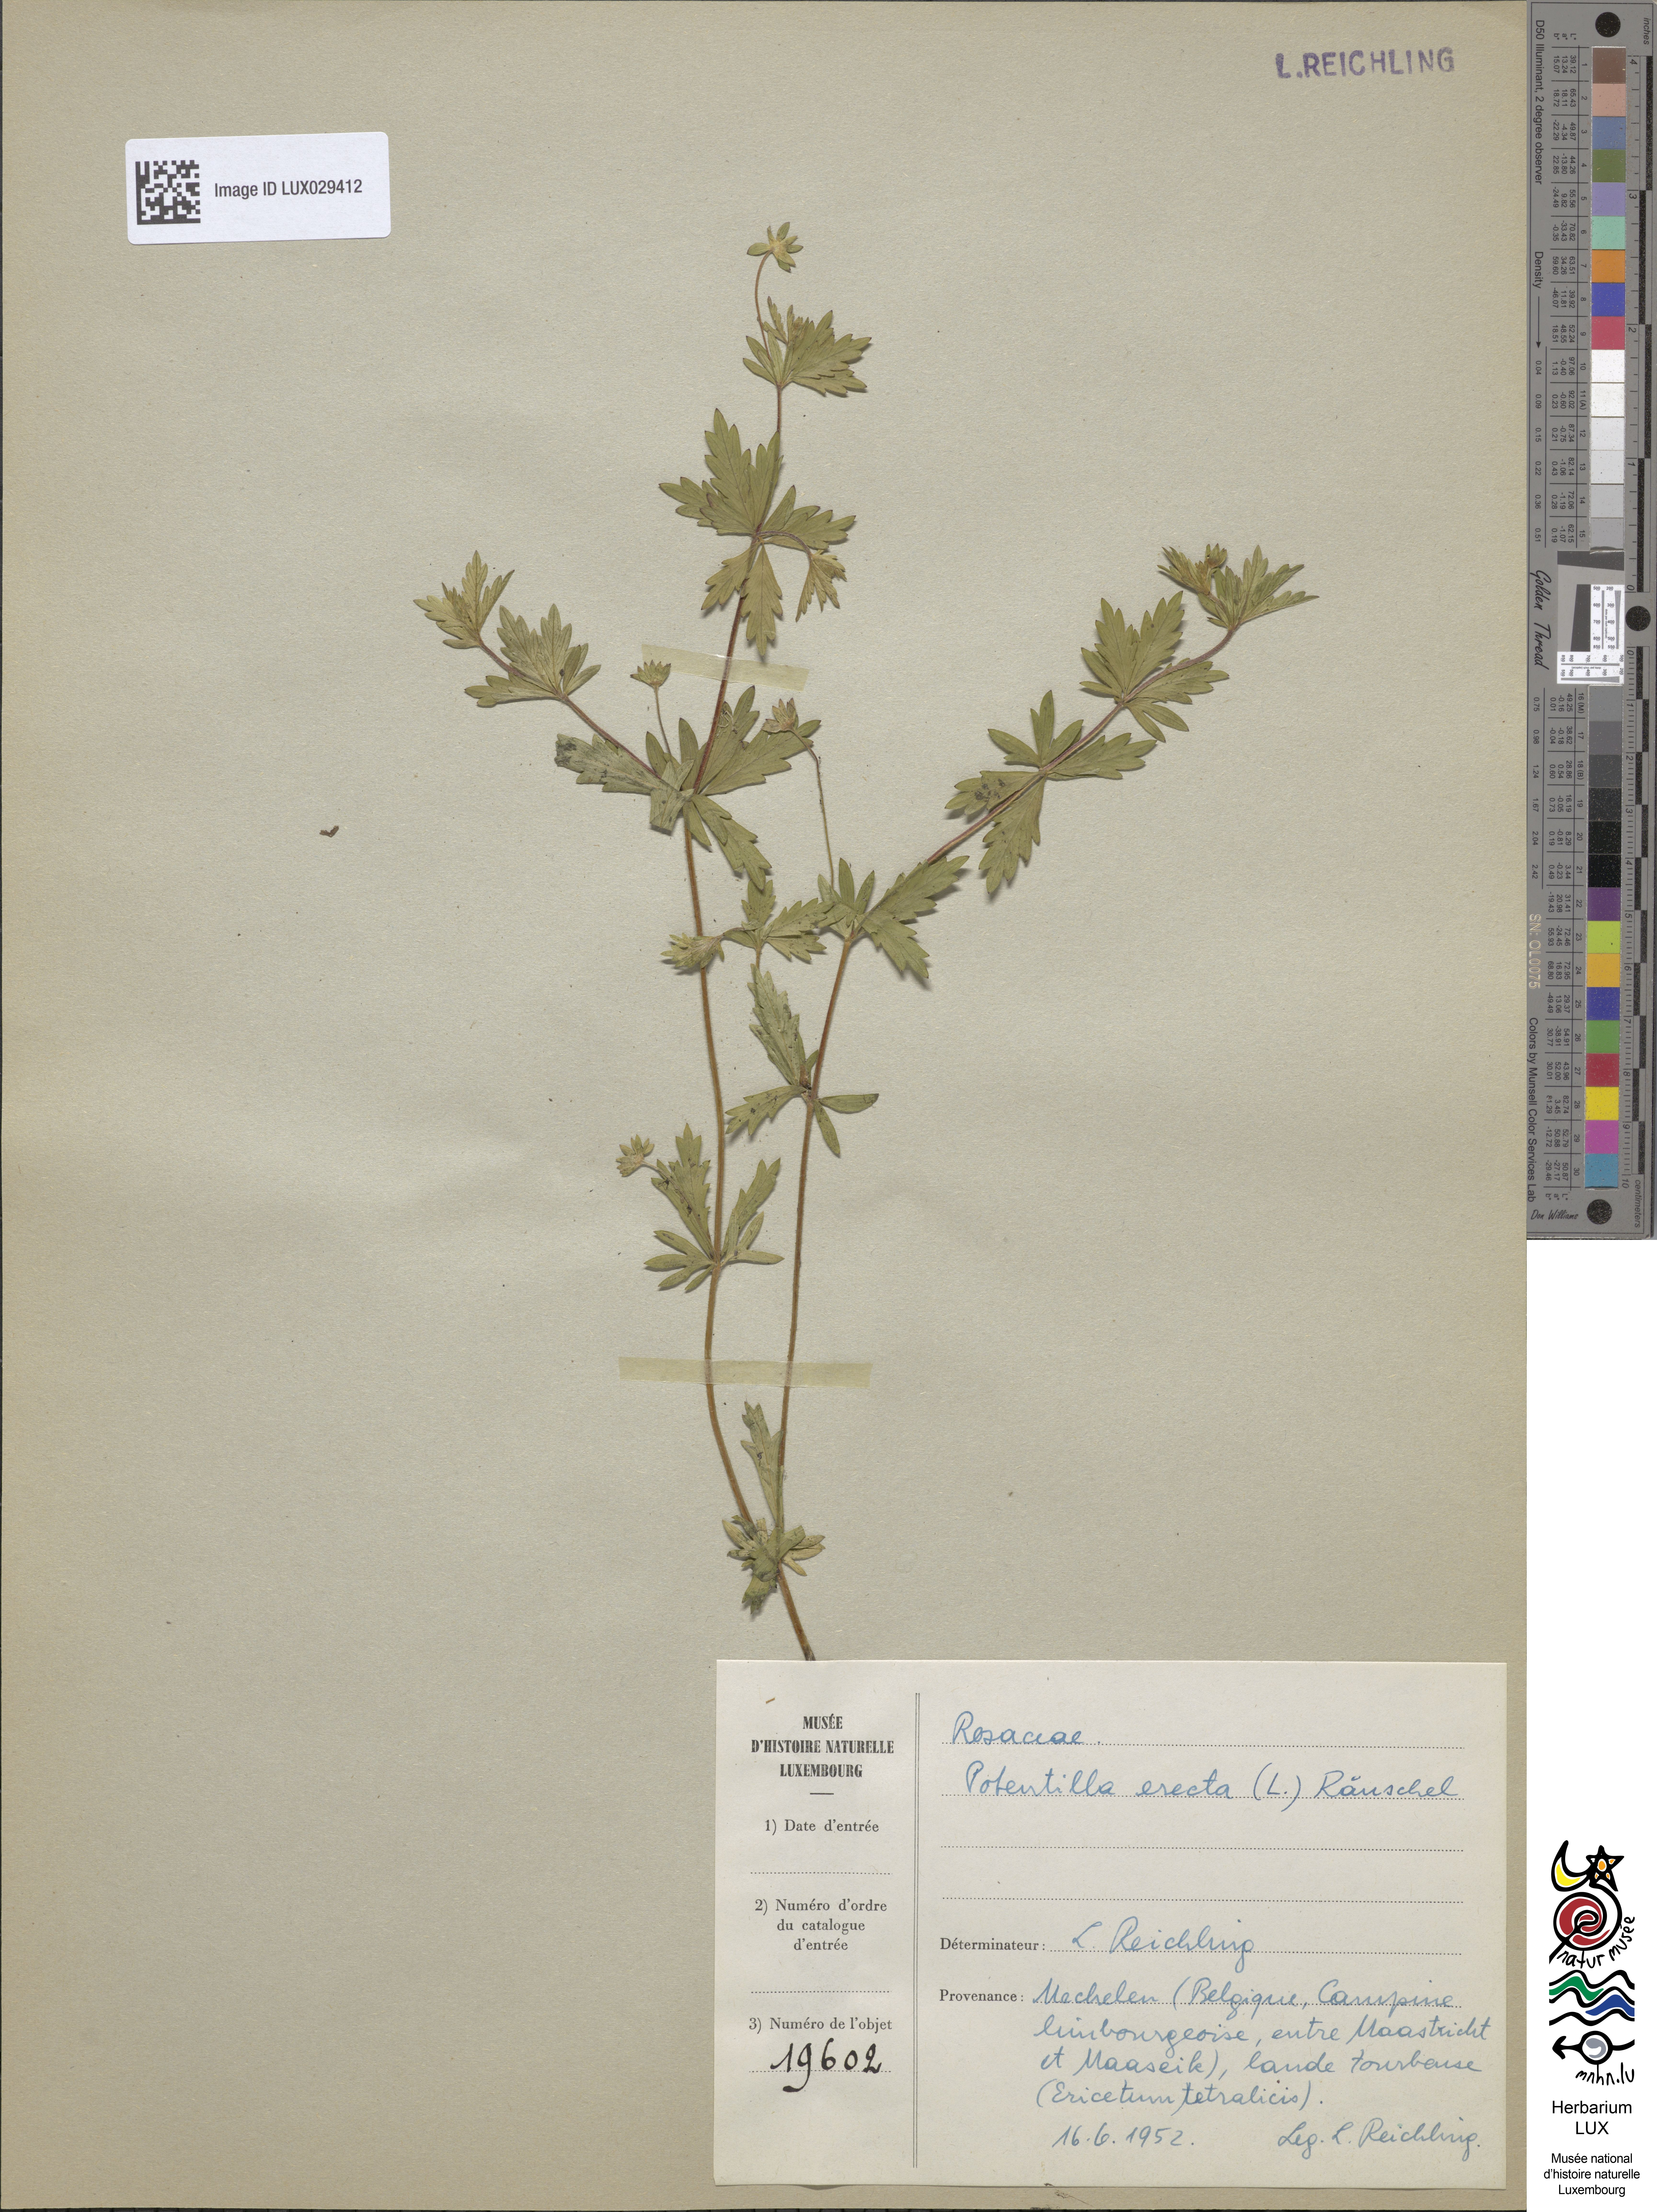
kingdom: Plantae
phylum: Tracheophyta
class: Magnoliopsida
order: Rosales
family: Rosaceae
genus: Potentilla
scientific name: Potentilla erecta
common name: Tormentil
